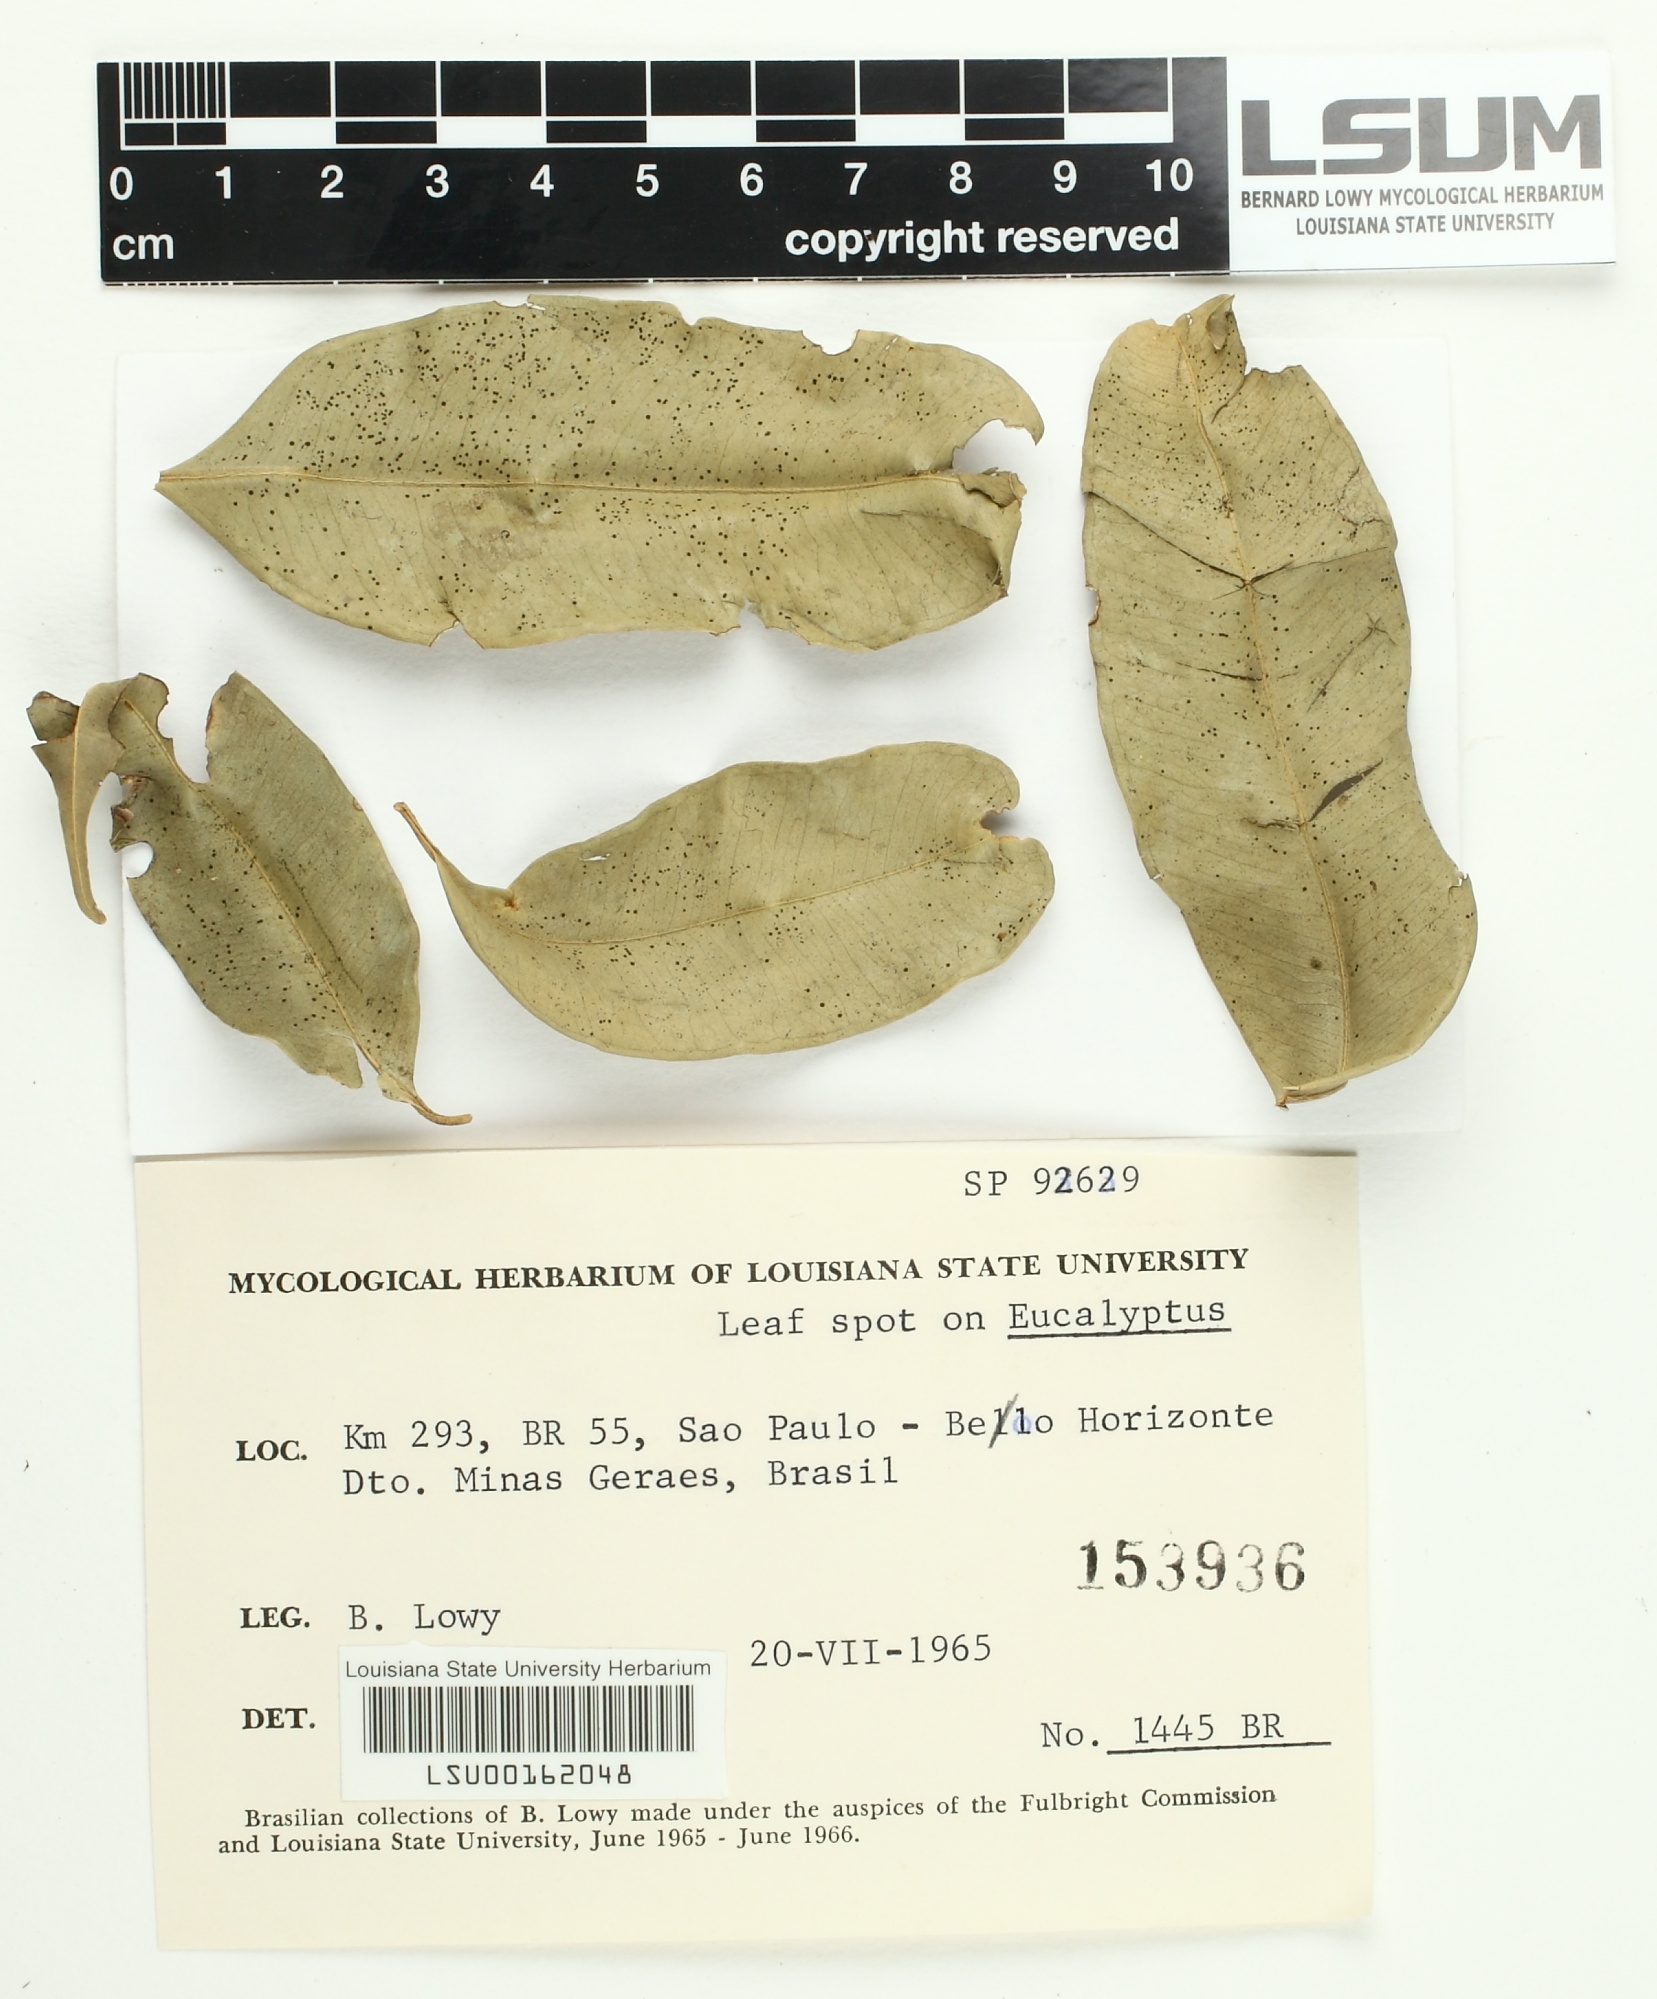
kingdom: Fungi
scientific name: Fungi
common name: Fungi
